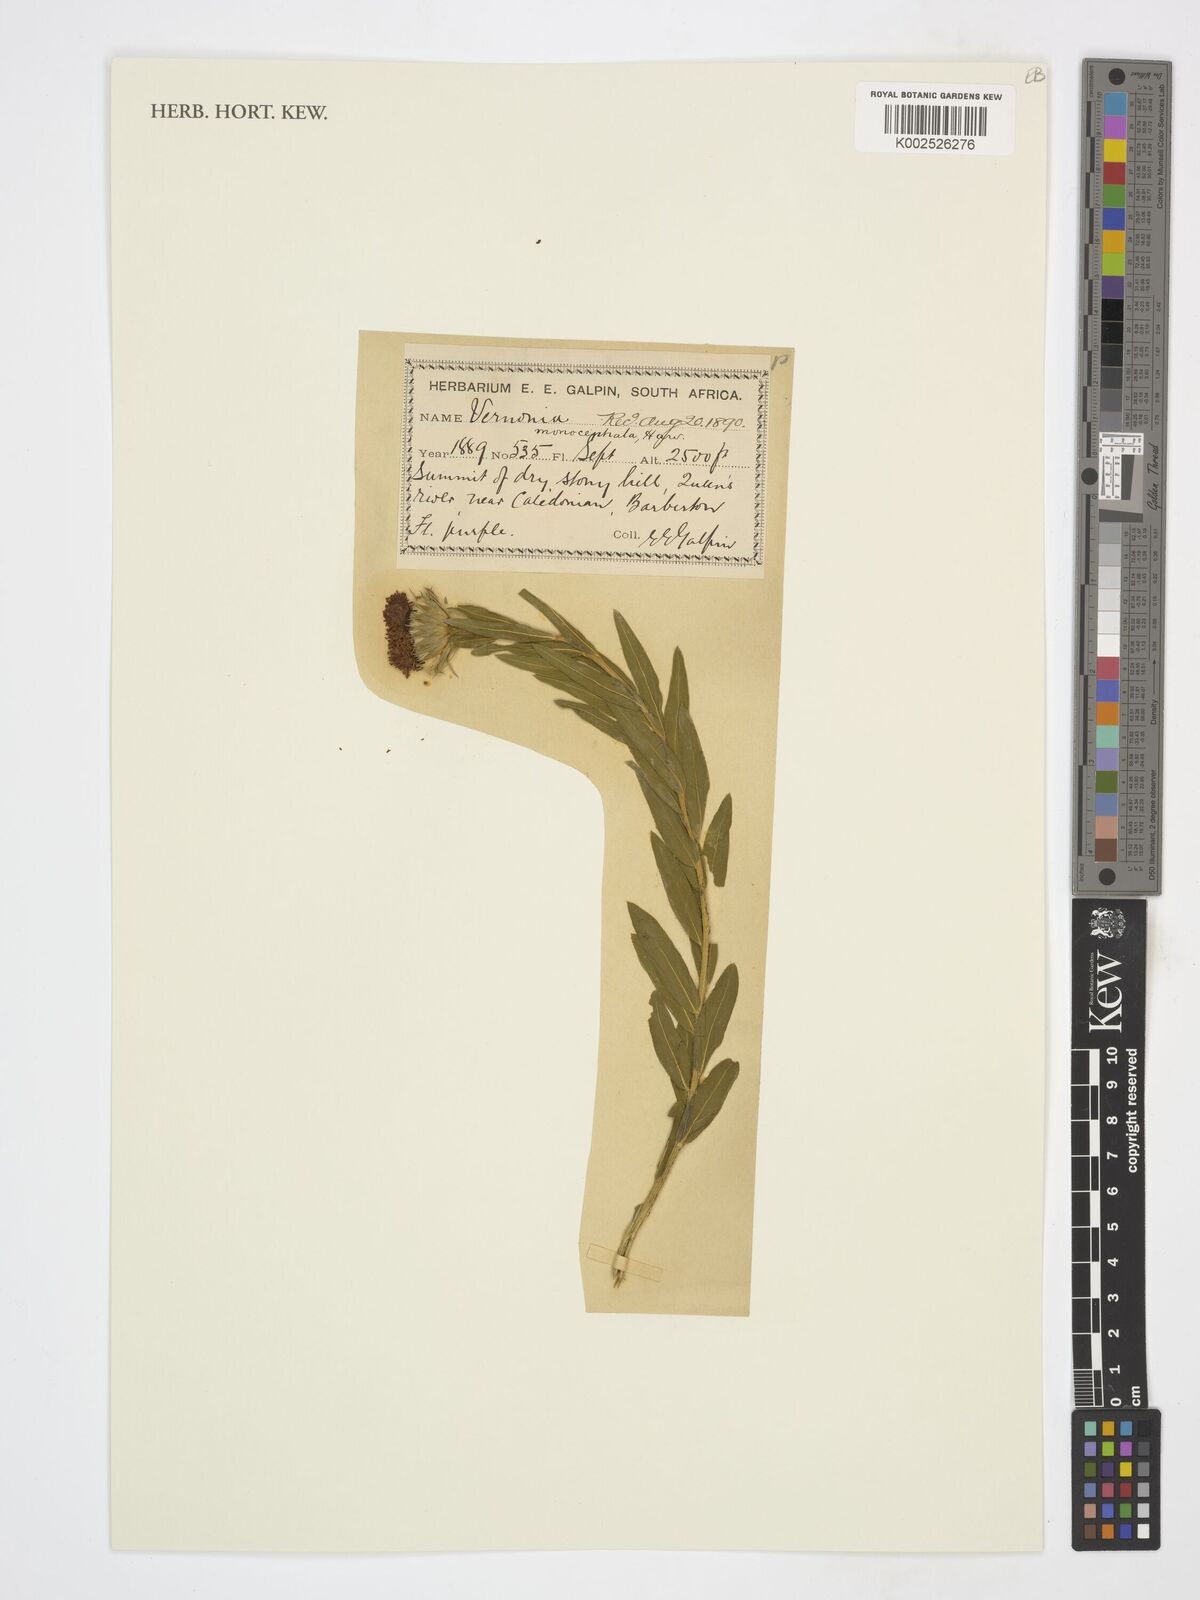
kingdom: Plantae
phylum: Tracheophyta
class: Magnoliopsida
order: Asterales
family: Asteraceae
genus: Pseudopegolettia
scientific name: Pseudopegolettia tenella
